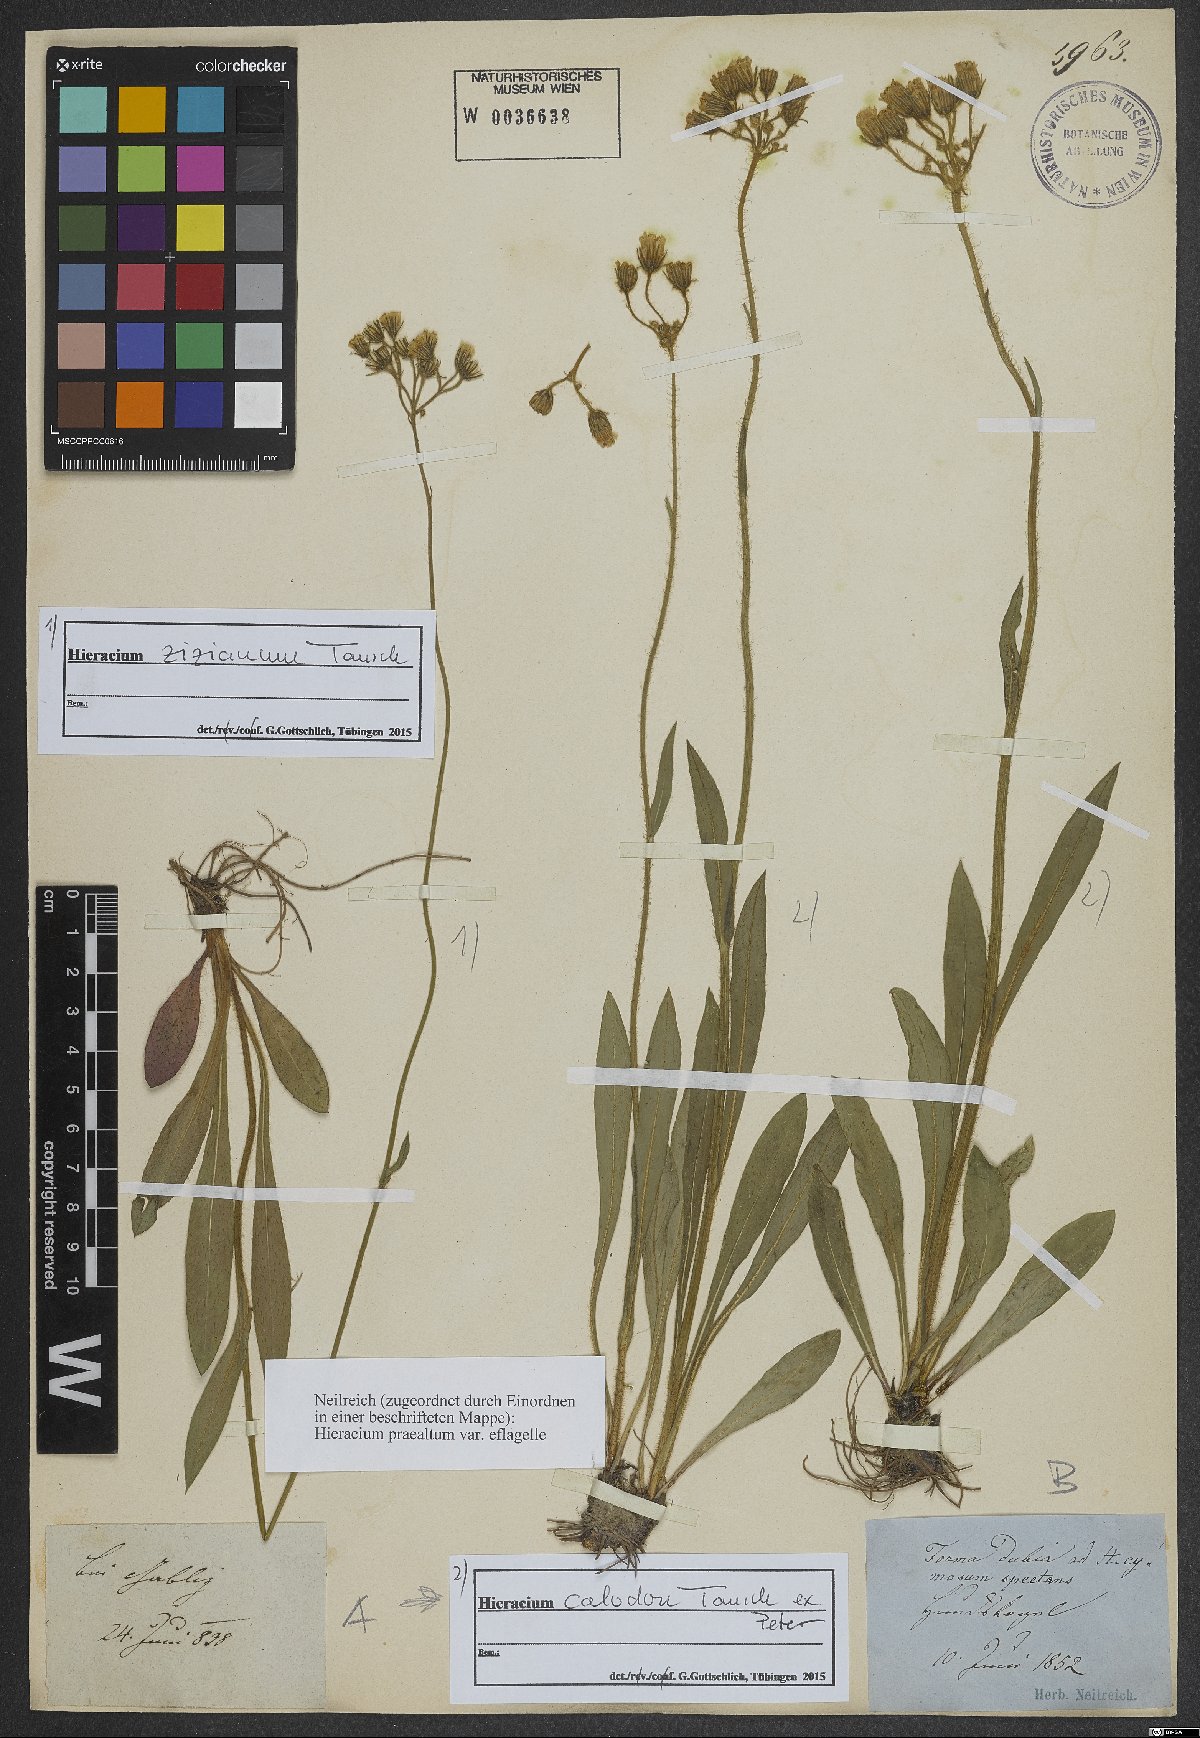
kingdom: Plantae
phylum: Tracheophyta
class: Magnoliopsida
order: Asterales
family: Asteraceae
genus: Pilosella
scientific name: Pilosella ziziana
